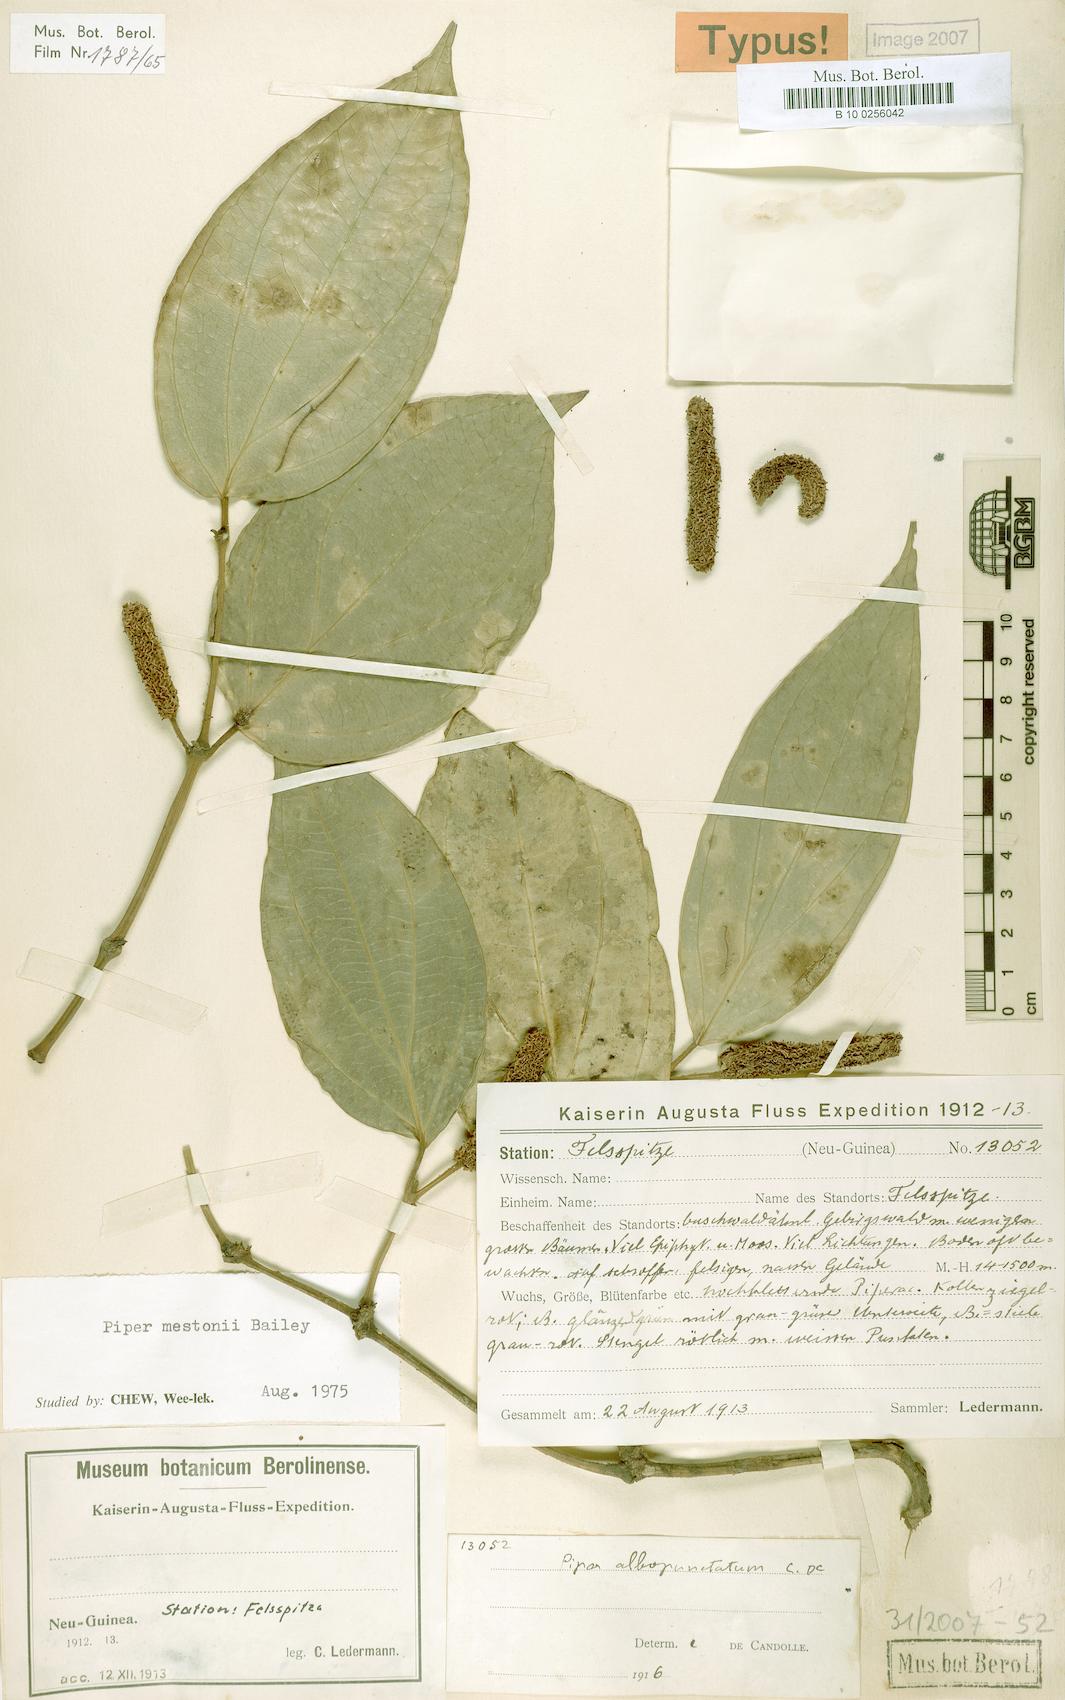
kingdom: Plantae
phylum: Tracheophyta
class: Magnoliopsida
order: Piperales
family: Piperaceae
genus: Piper
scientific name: Piper mestonii
